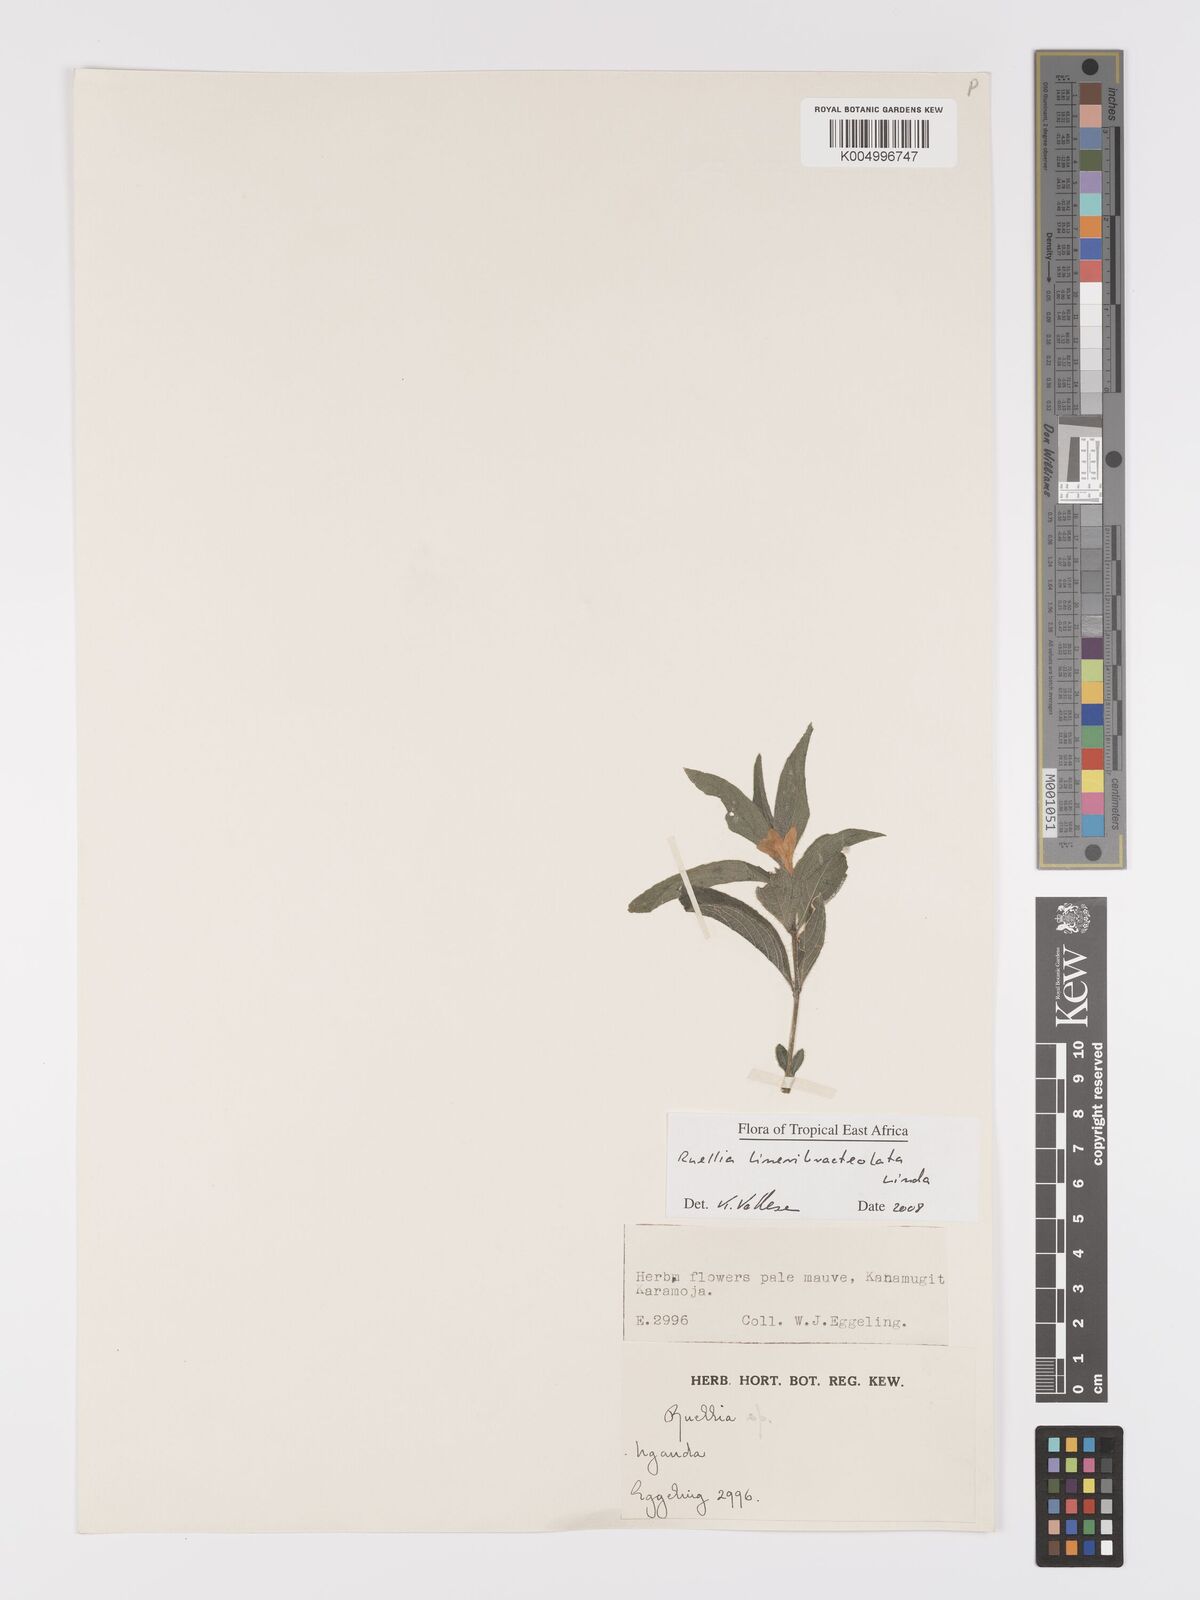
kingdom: Plantae
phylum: Tracheophyta
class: Magnoliopsida
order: Lamiales
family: Acanthaceae
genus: Ruellia
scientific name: Ruellia linearibracteolata
